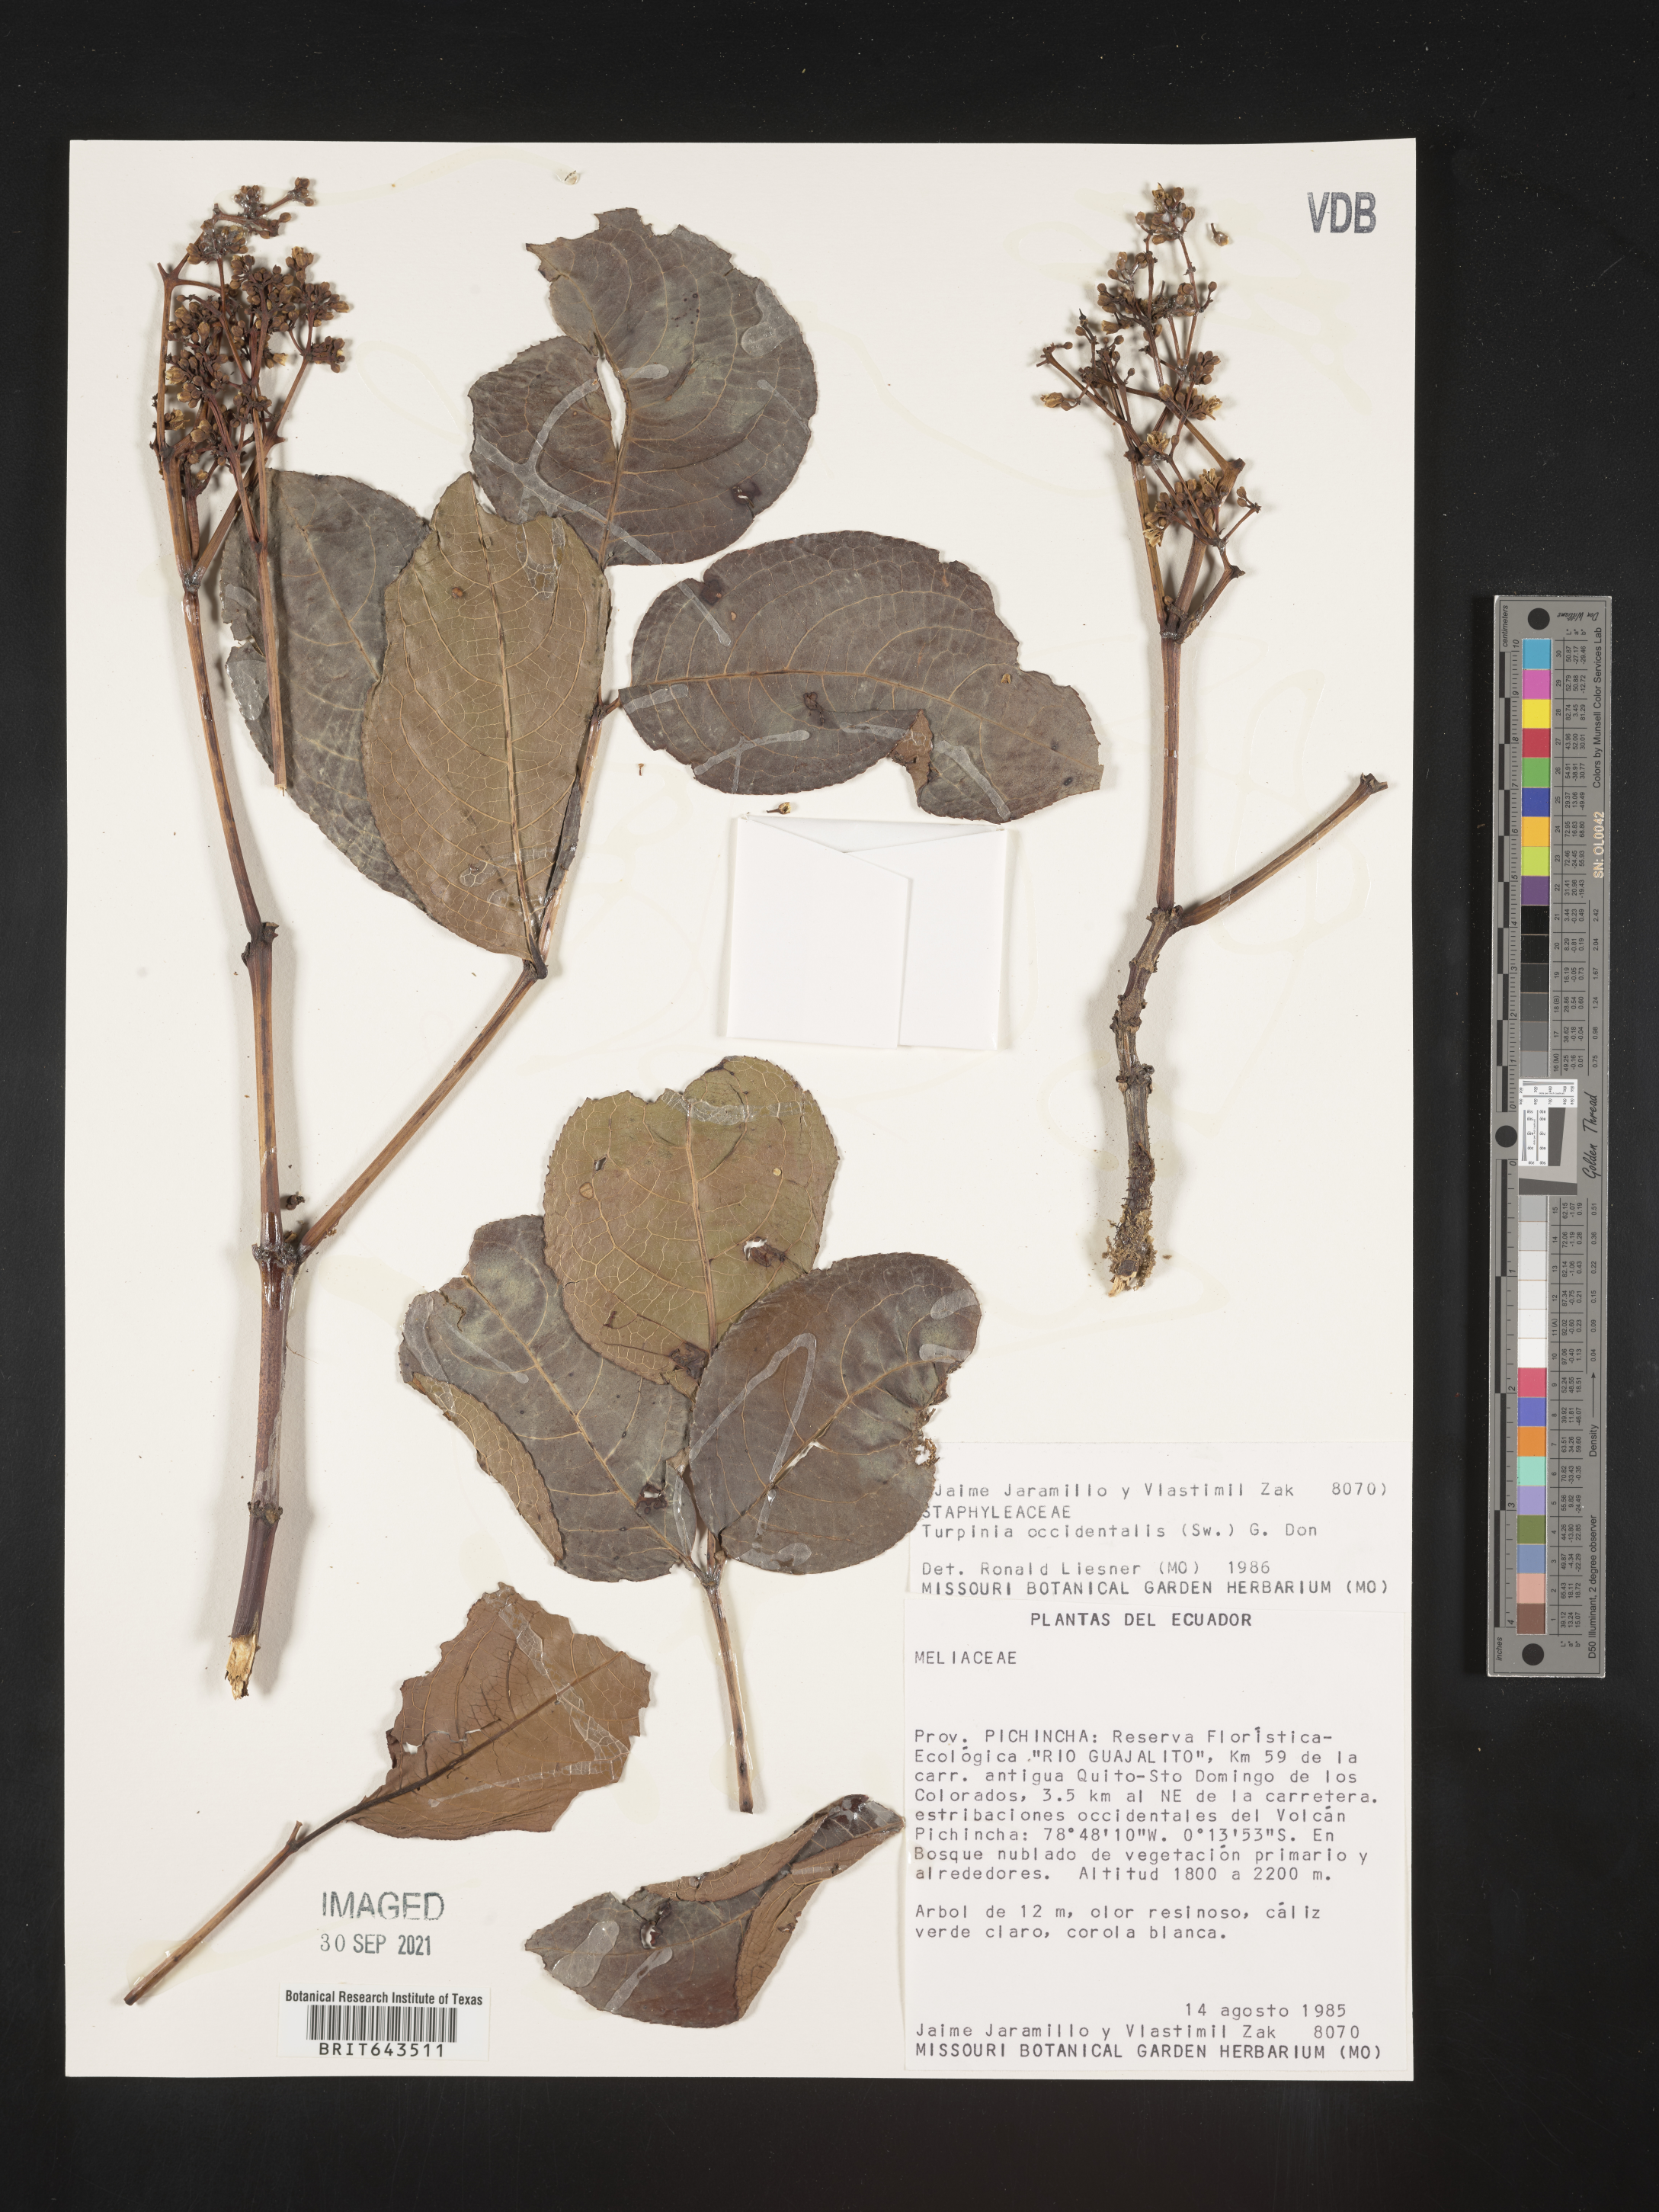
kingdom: Plantae
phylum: Tracheophyta
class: Magnoliopsida
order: Crossosomatales
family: Staphyleaceae
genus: Turpinia
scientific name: Turpinia
